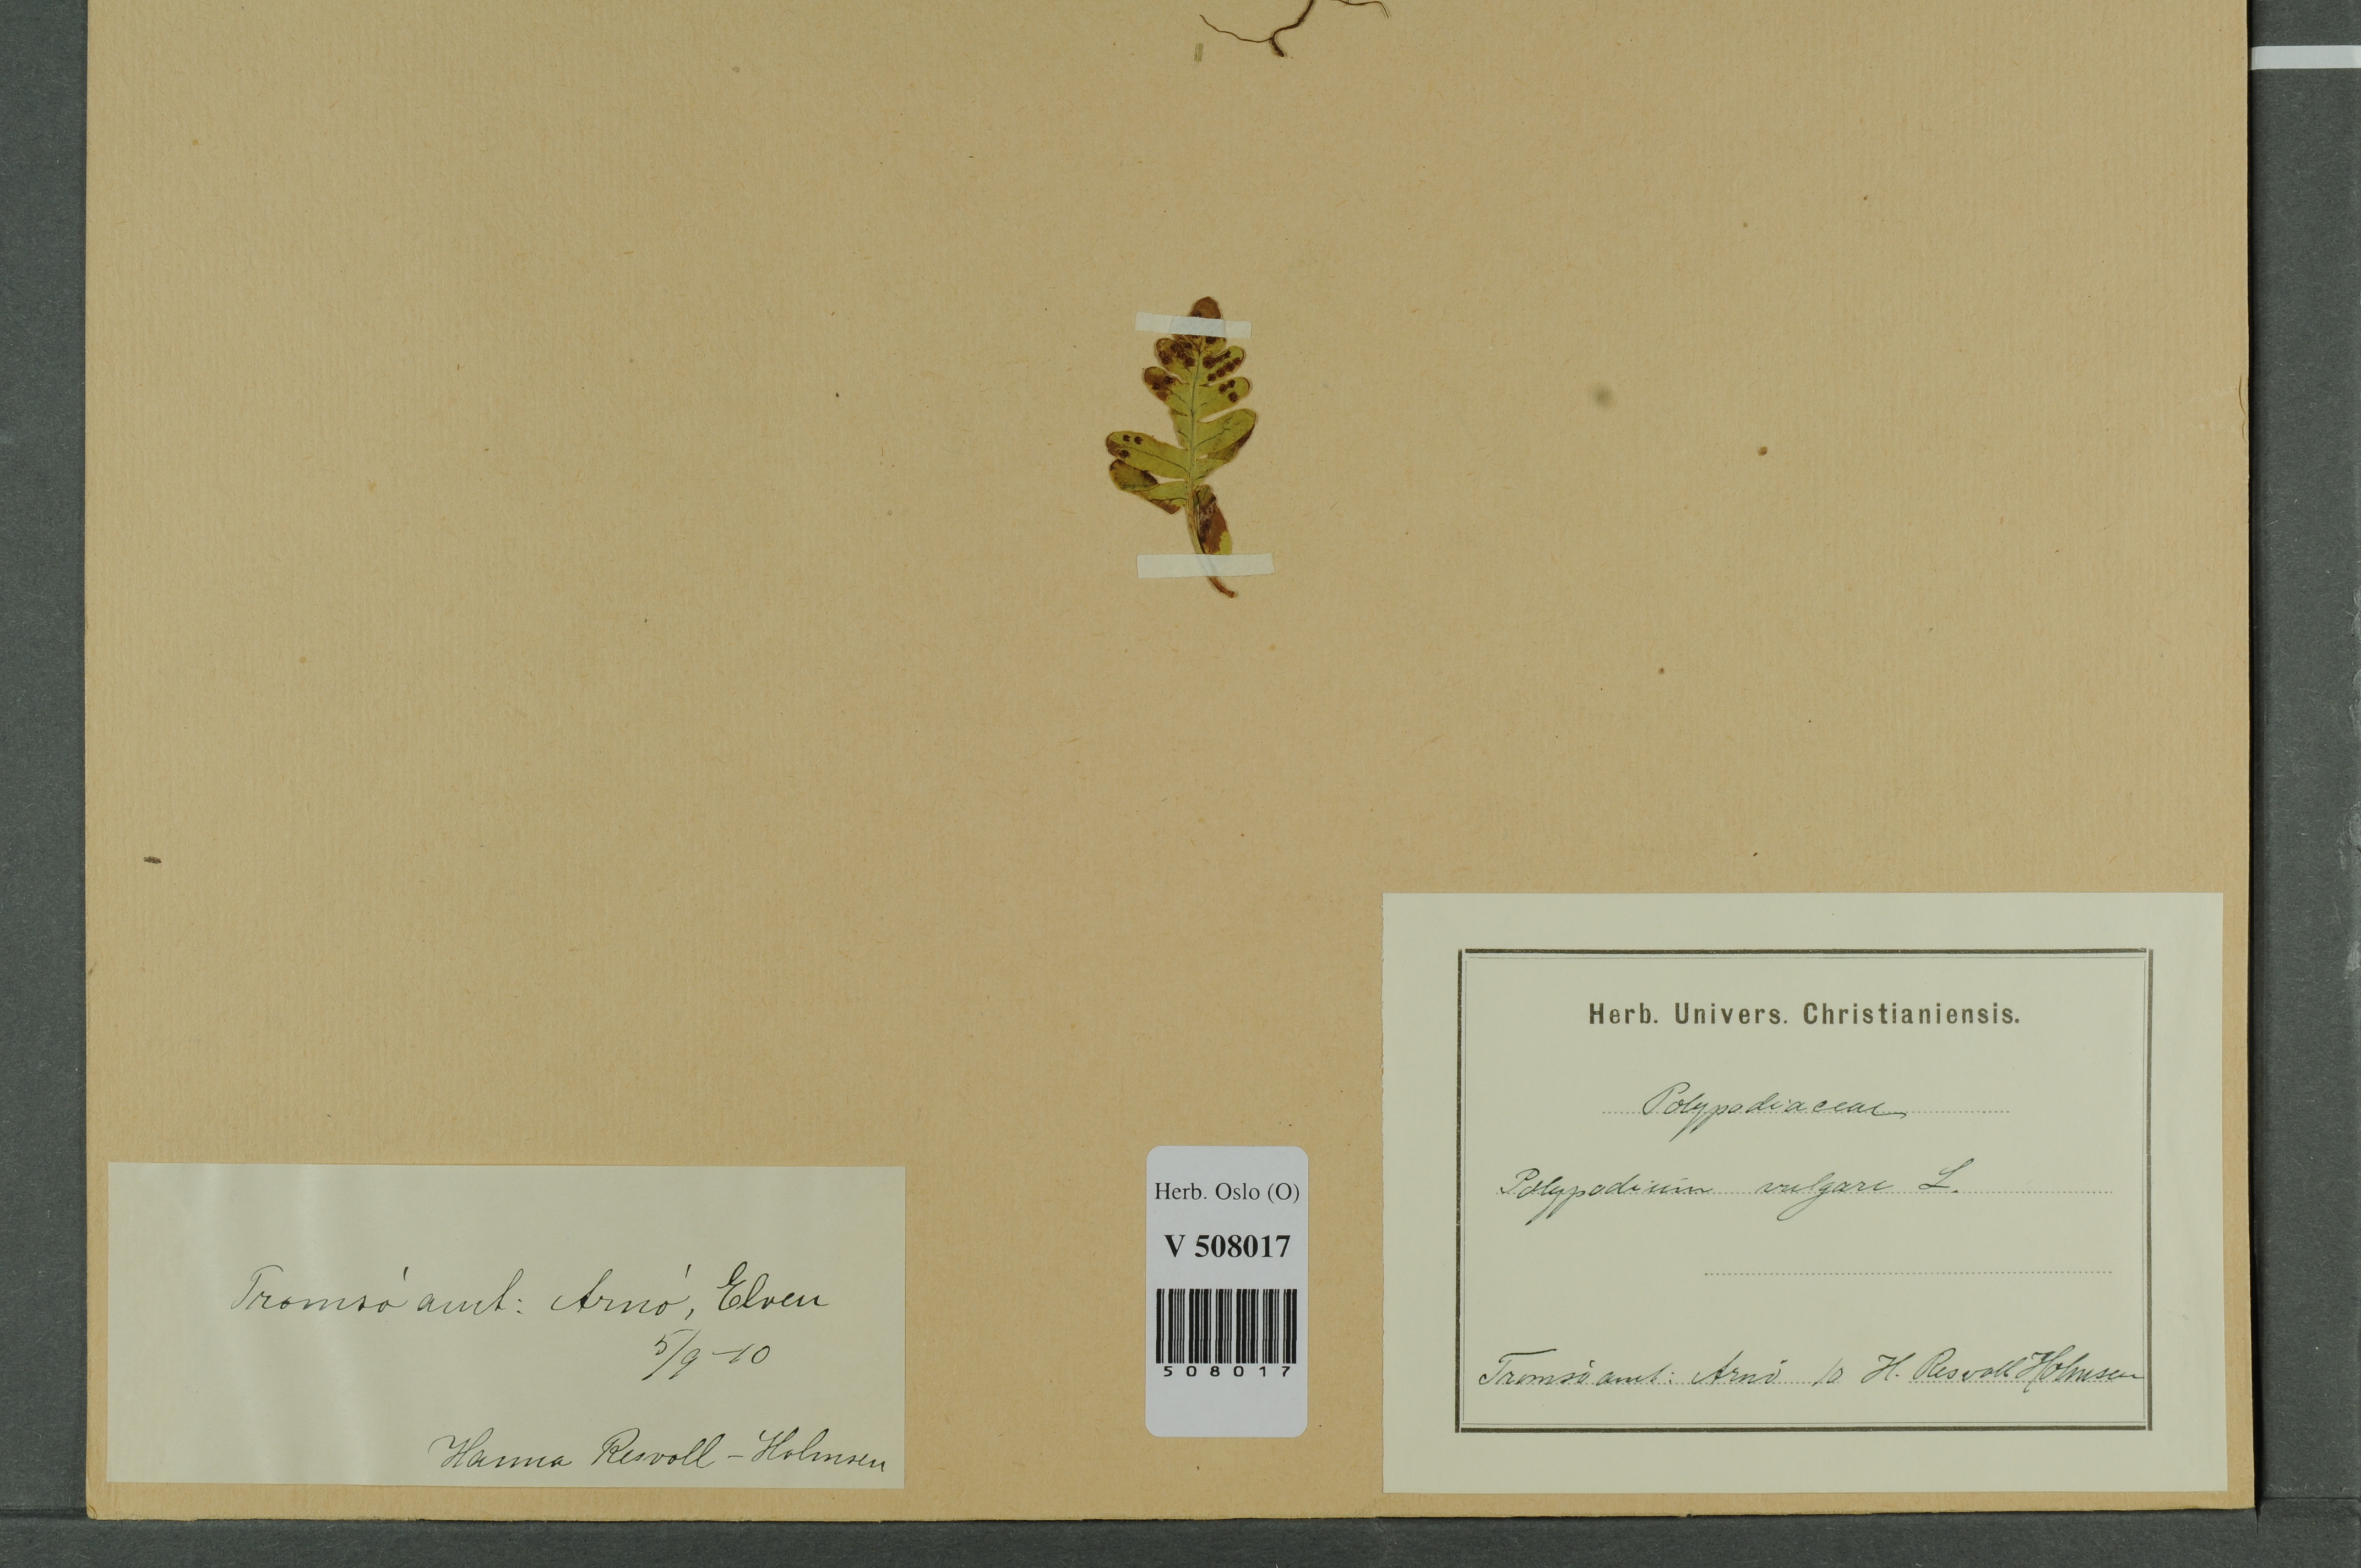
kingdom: Plantae
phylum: Tracheophyta
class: Polypodiopsida
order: Polypodiales
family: Polypodiaceae
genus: Polypodium
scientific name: Polypodium vulgare
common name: Common polypody
